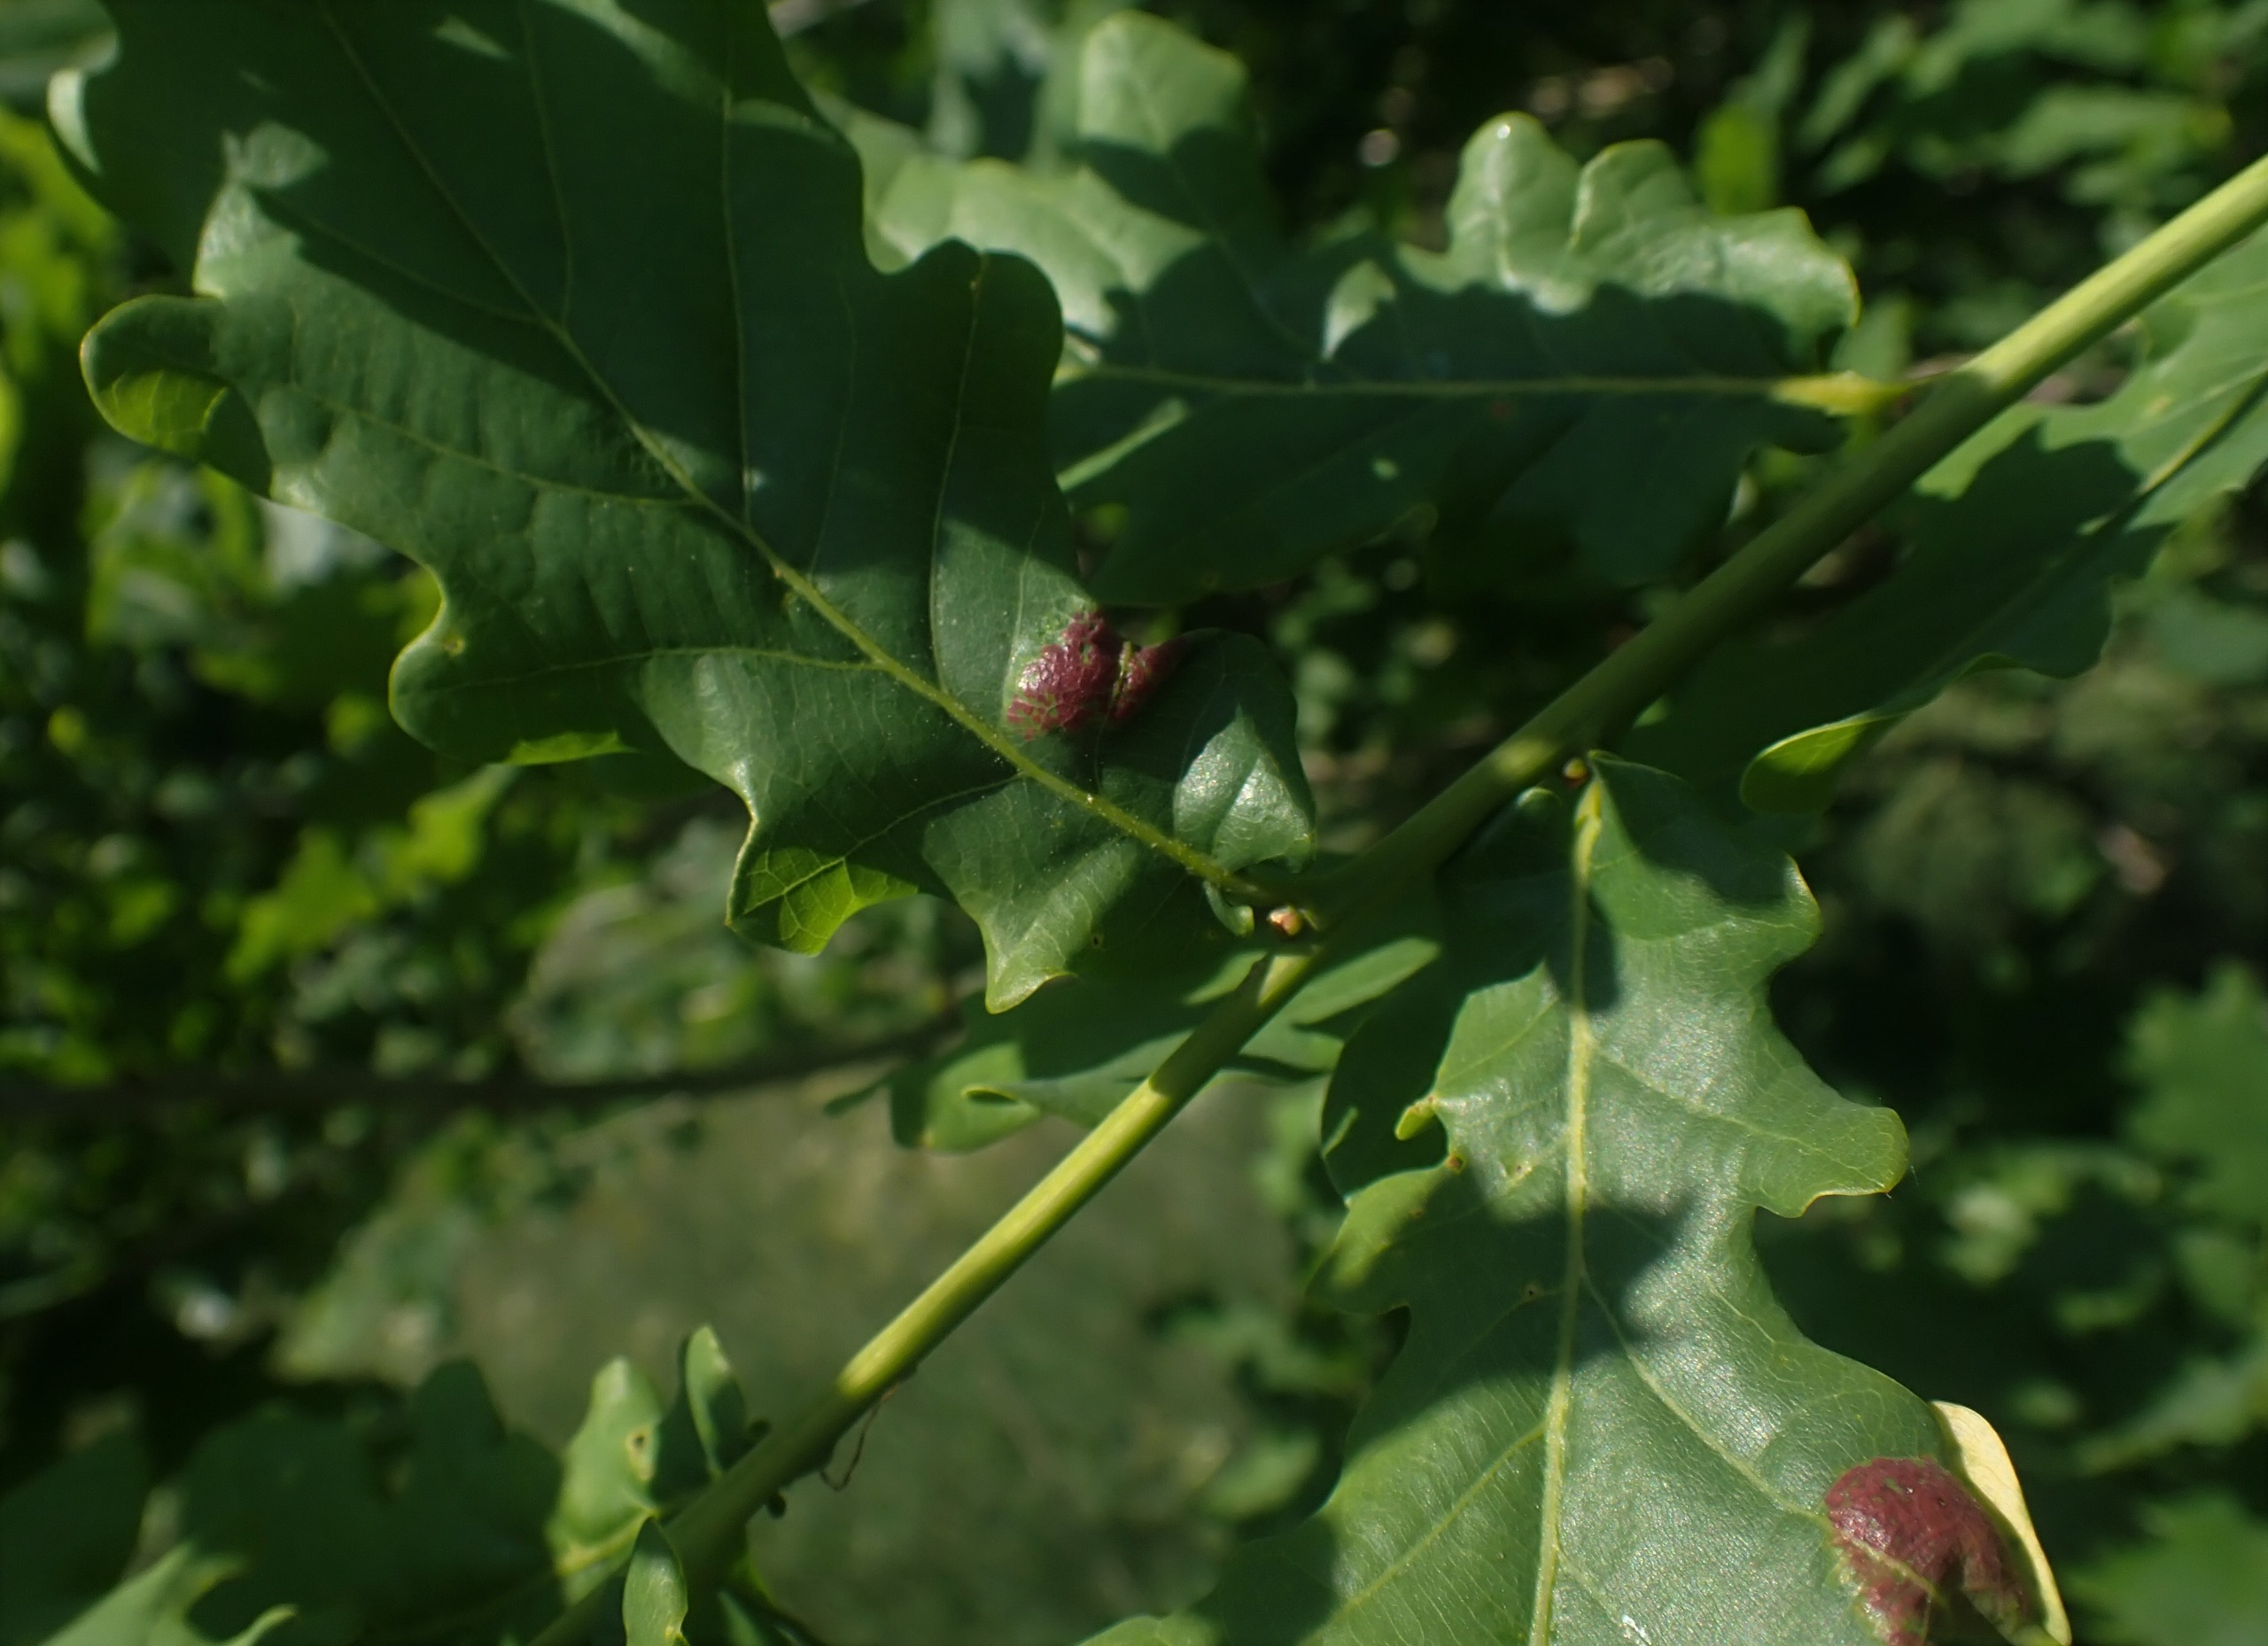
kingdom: Animalia
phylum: Arthropoda
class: Insecta
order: Diptera
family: Cecidomyiidae
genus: Macrodiplosis
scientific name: Macrodiplosis pustularis
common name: Marmorgalmyg
